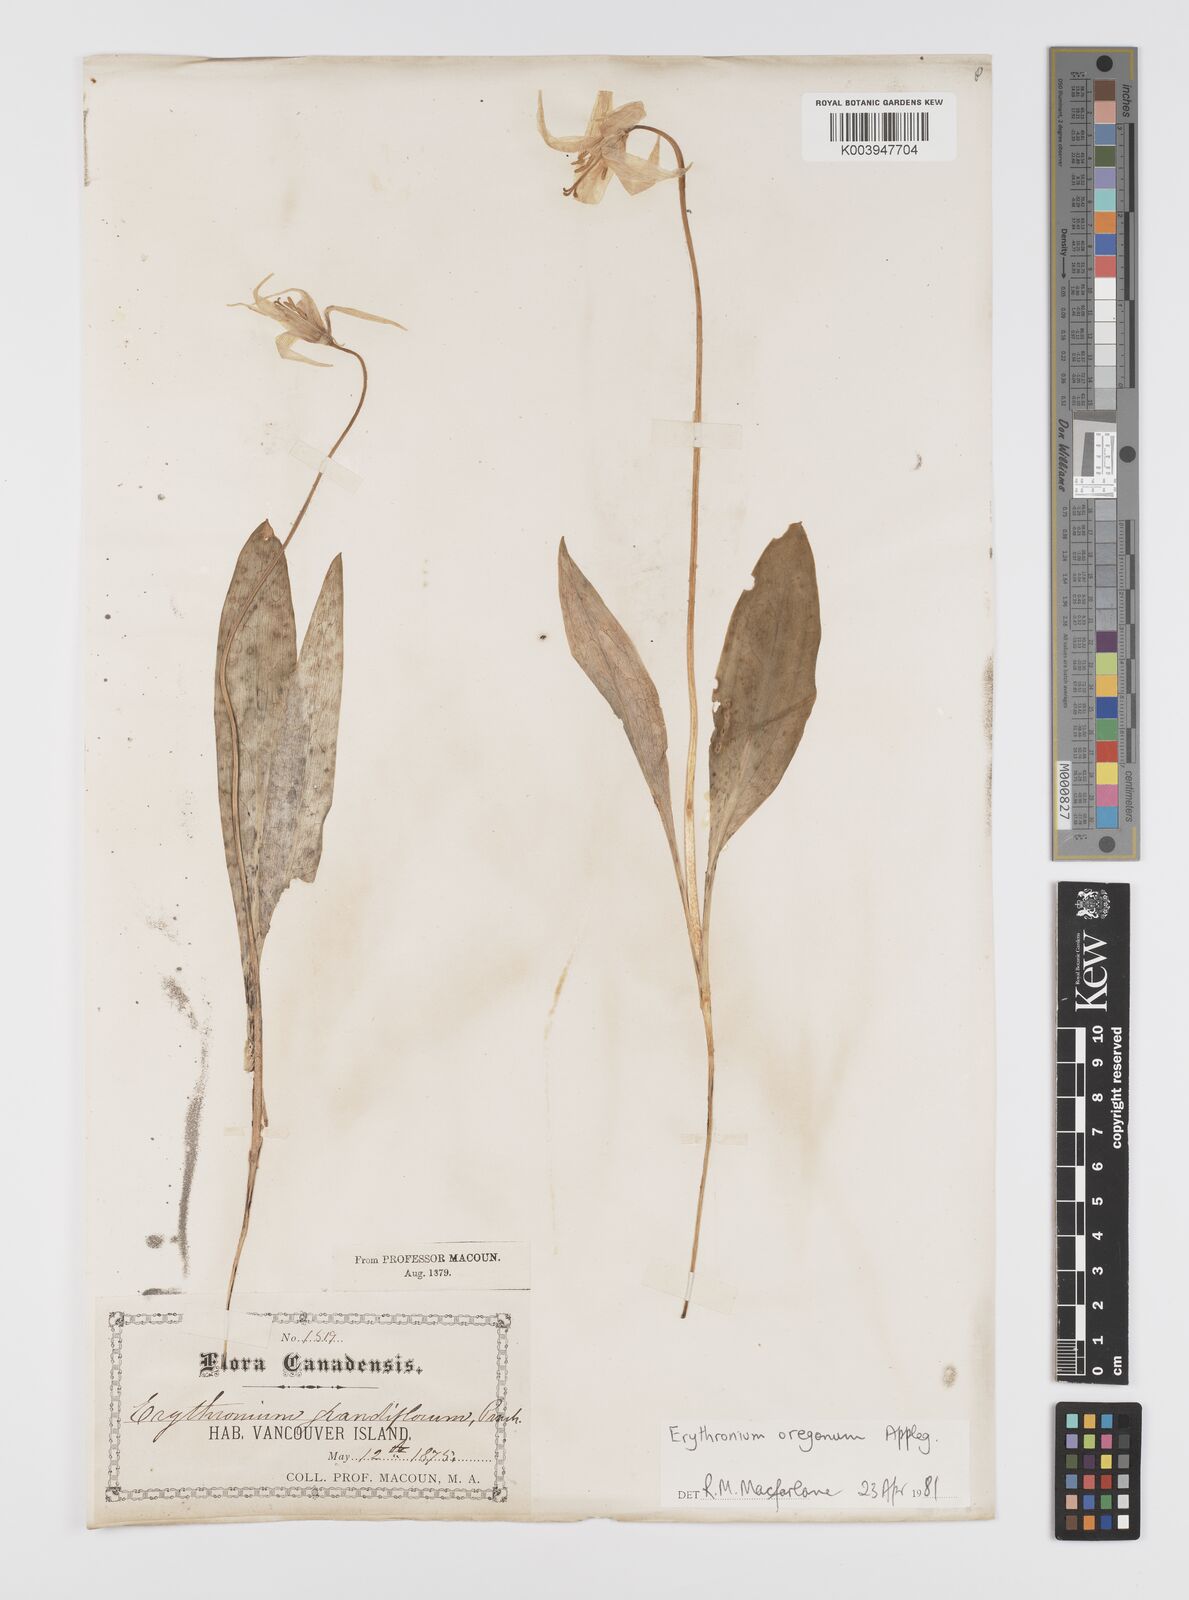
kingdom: Plantae
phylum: Tracheophyta
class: Liliopsida
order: Liliales
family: Liliaceae
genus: Erythronium
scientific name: Erythronium oregonum
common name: Giant adder's-tongue
